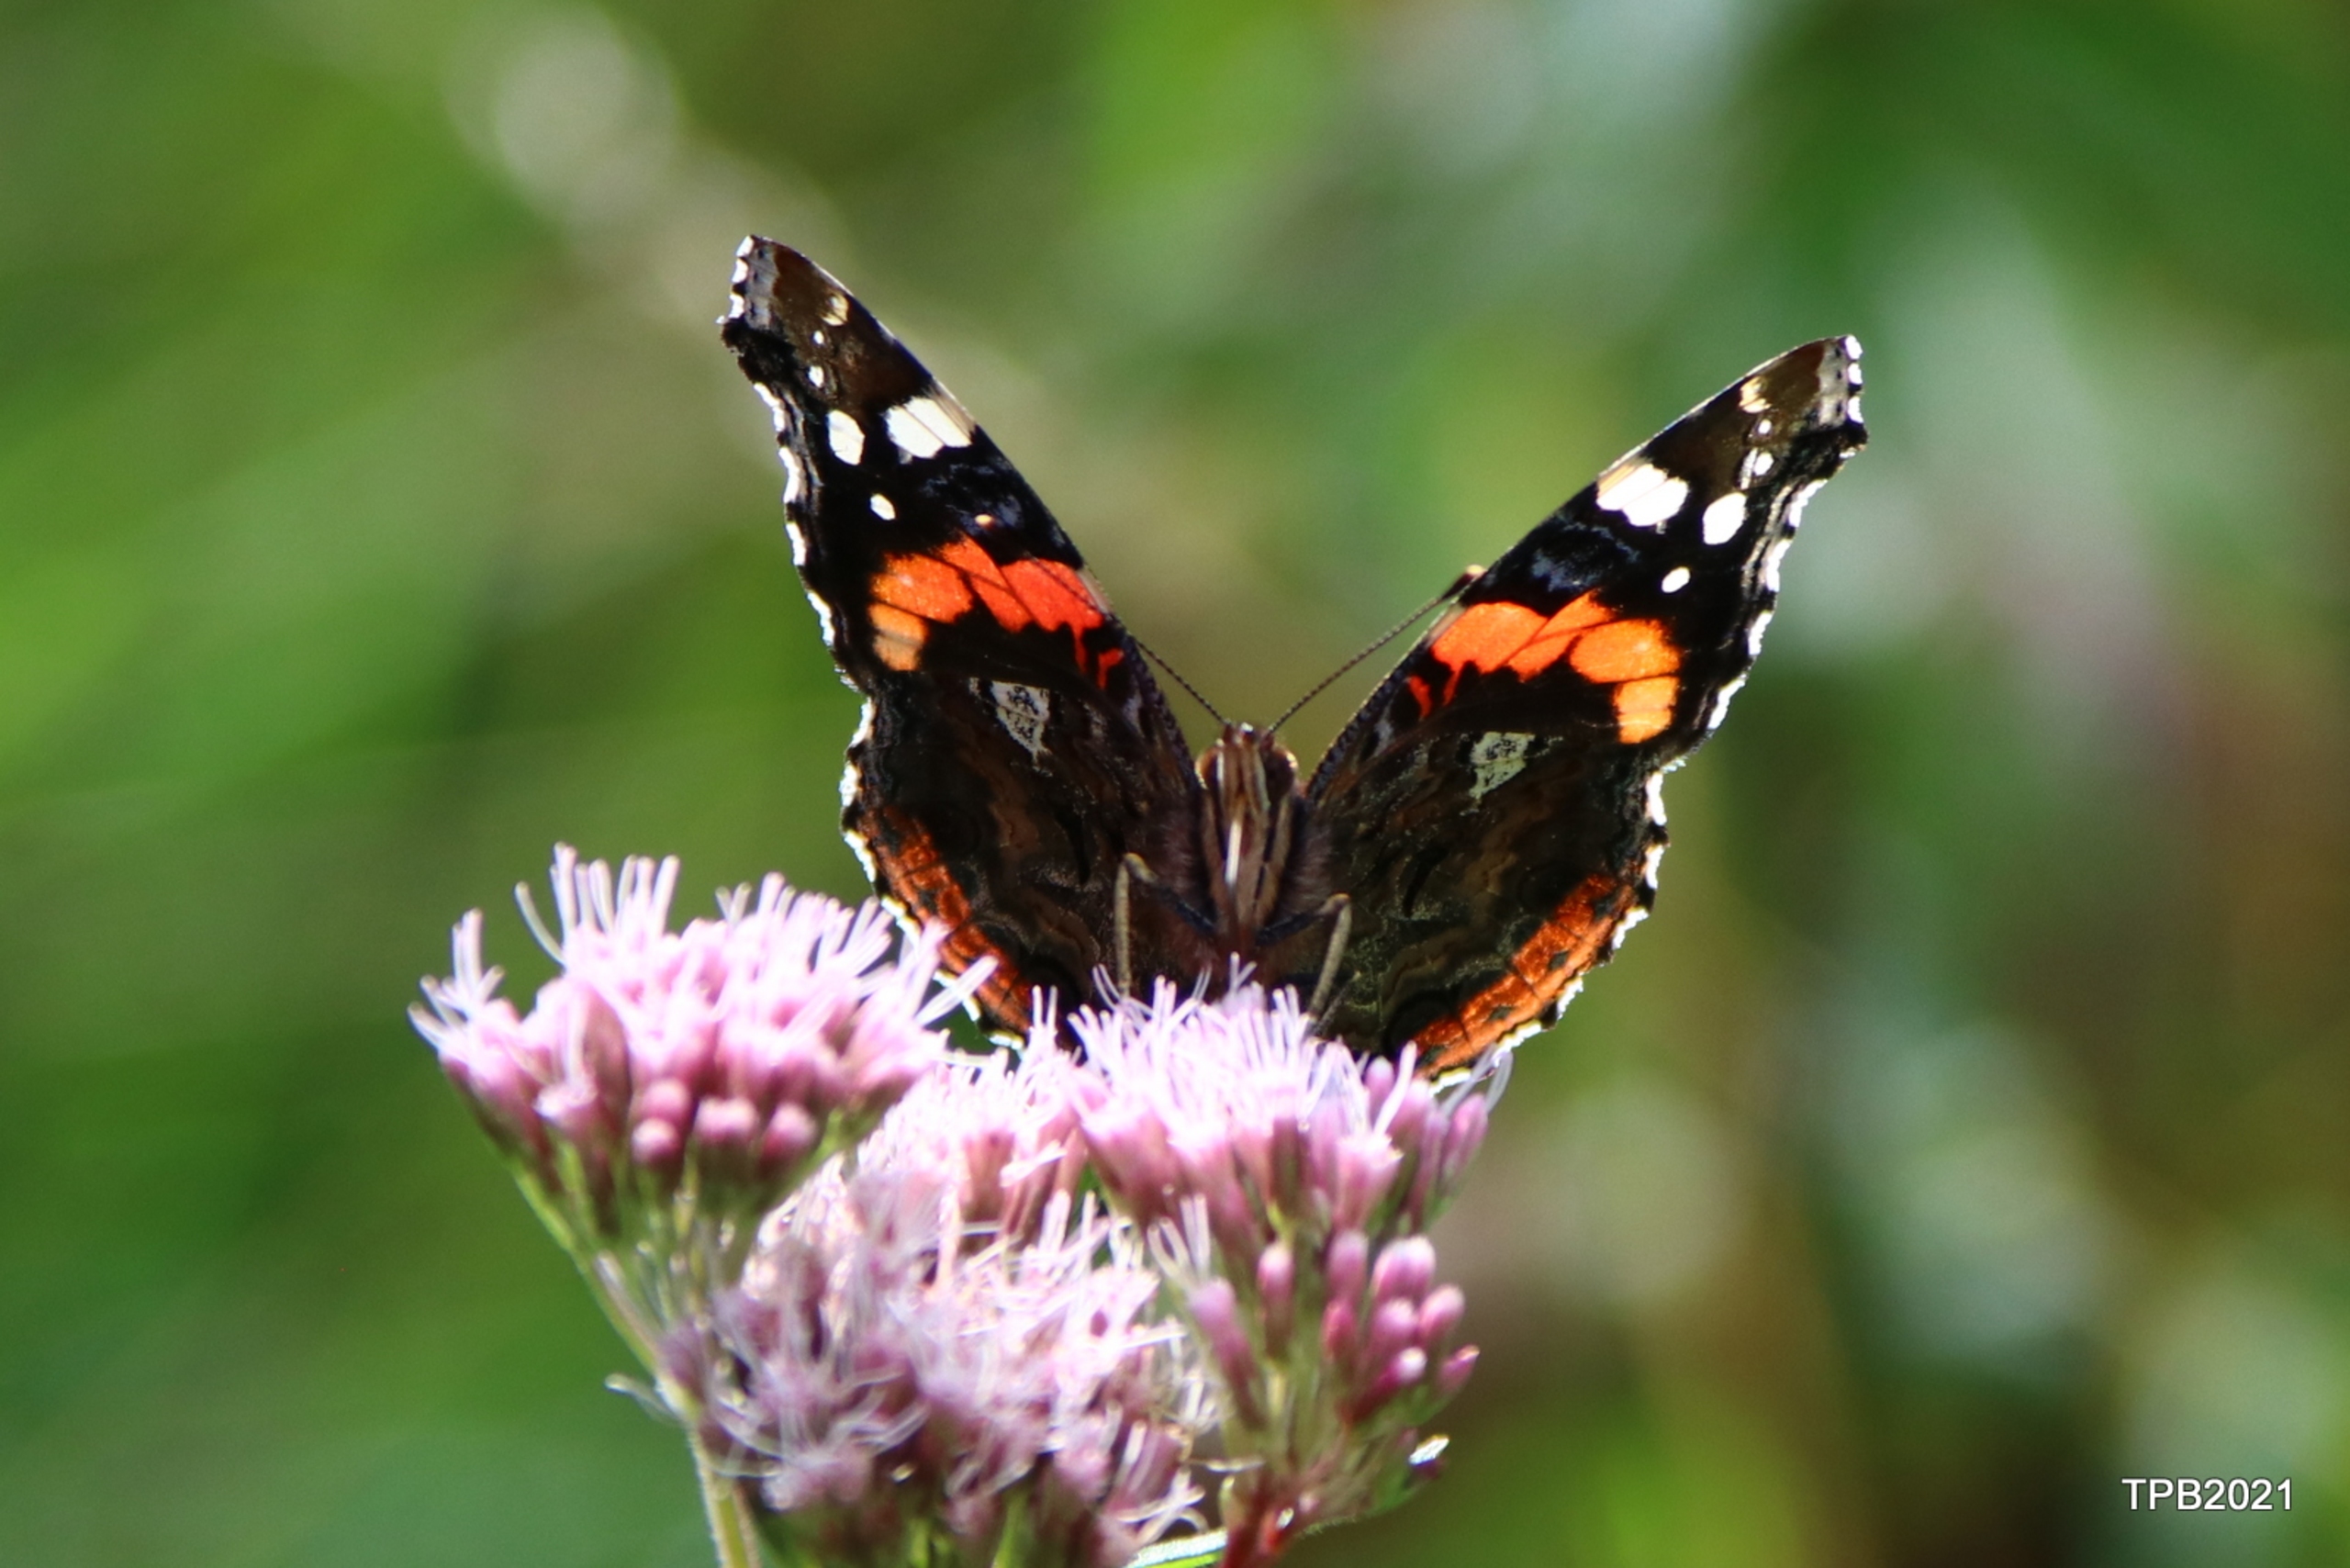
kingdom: Animalia
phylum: Arthropoda
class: Insecta
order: Lepidoptera
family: Nymphalidae
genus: Vanessa
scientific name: Vanessa atalanta
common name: Admiral
